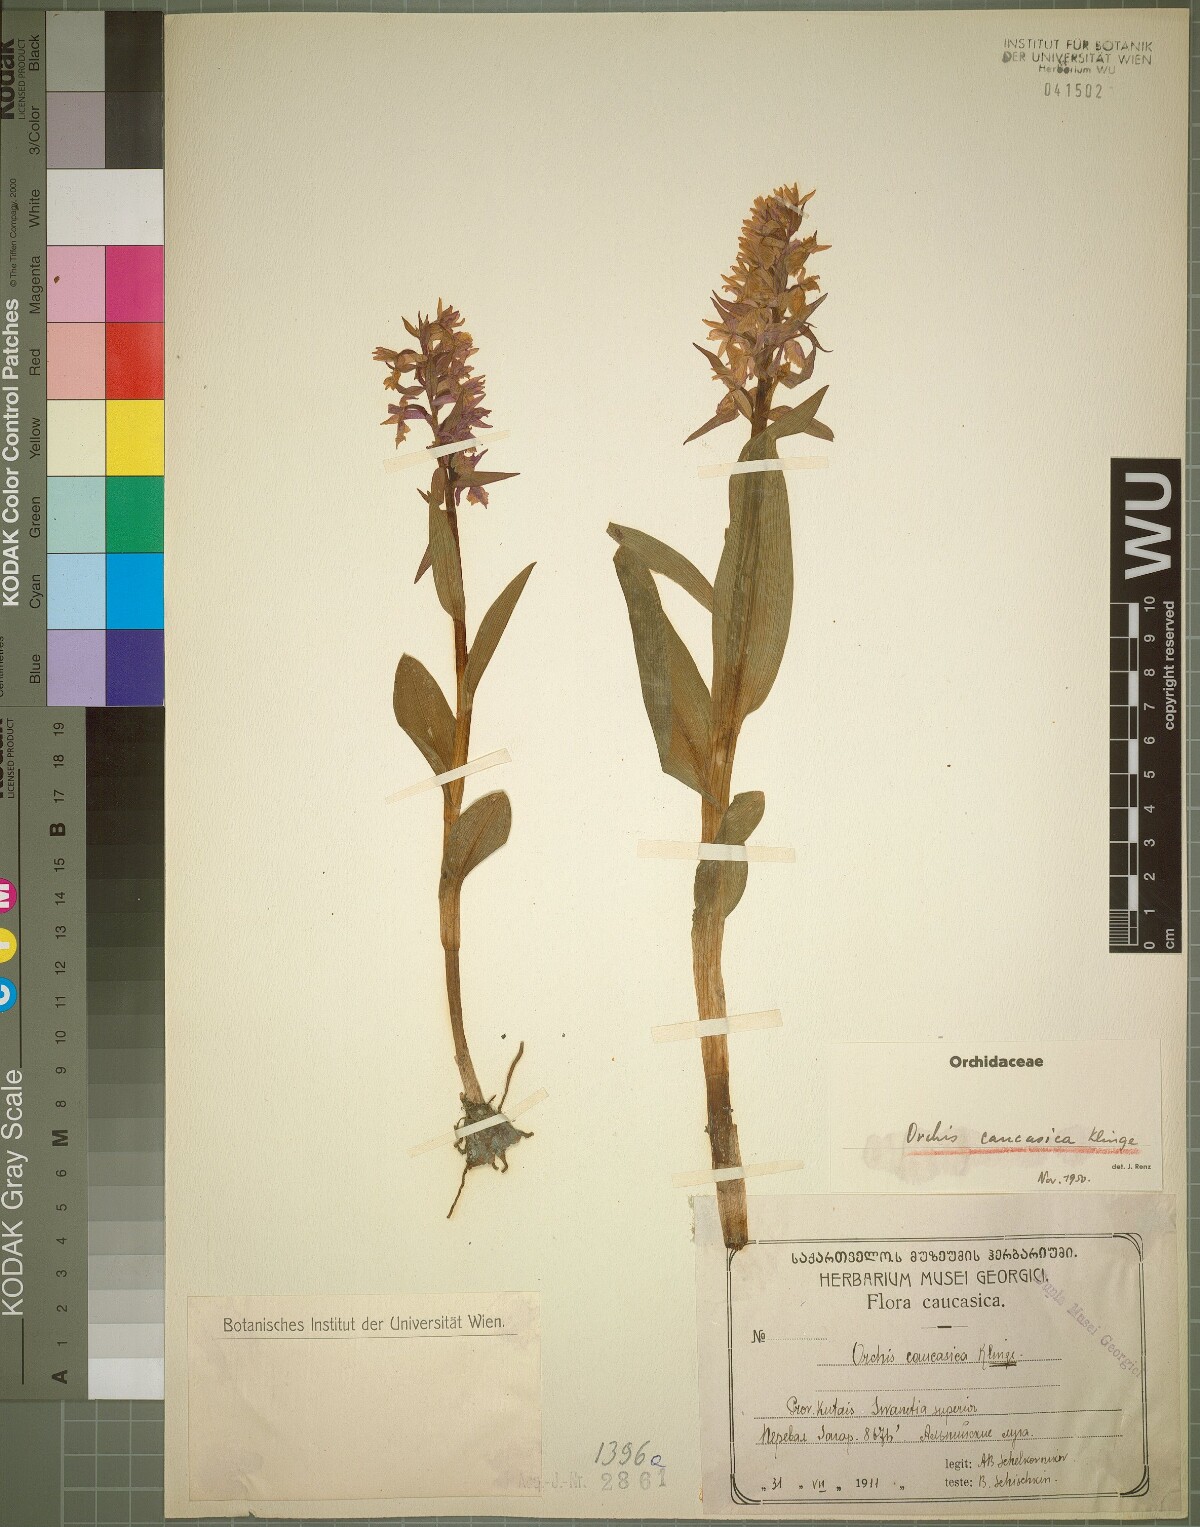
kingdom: Plantae
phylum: Tracheophyta
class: Liliopsida
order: Asparagales
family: Orchidaceae
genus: Dactylorhiza
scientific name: Dactylorhiza euxina
